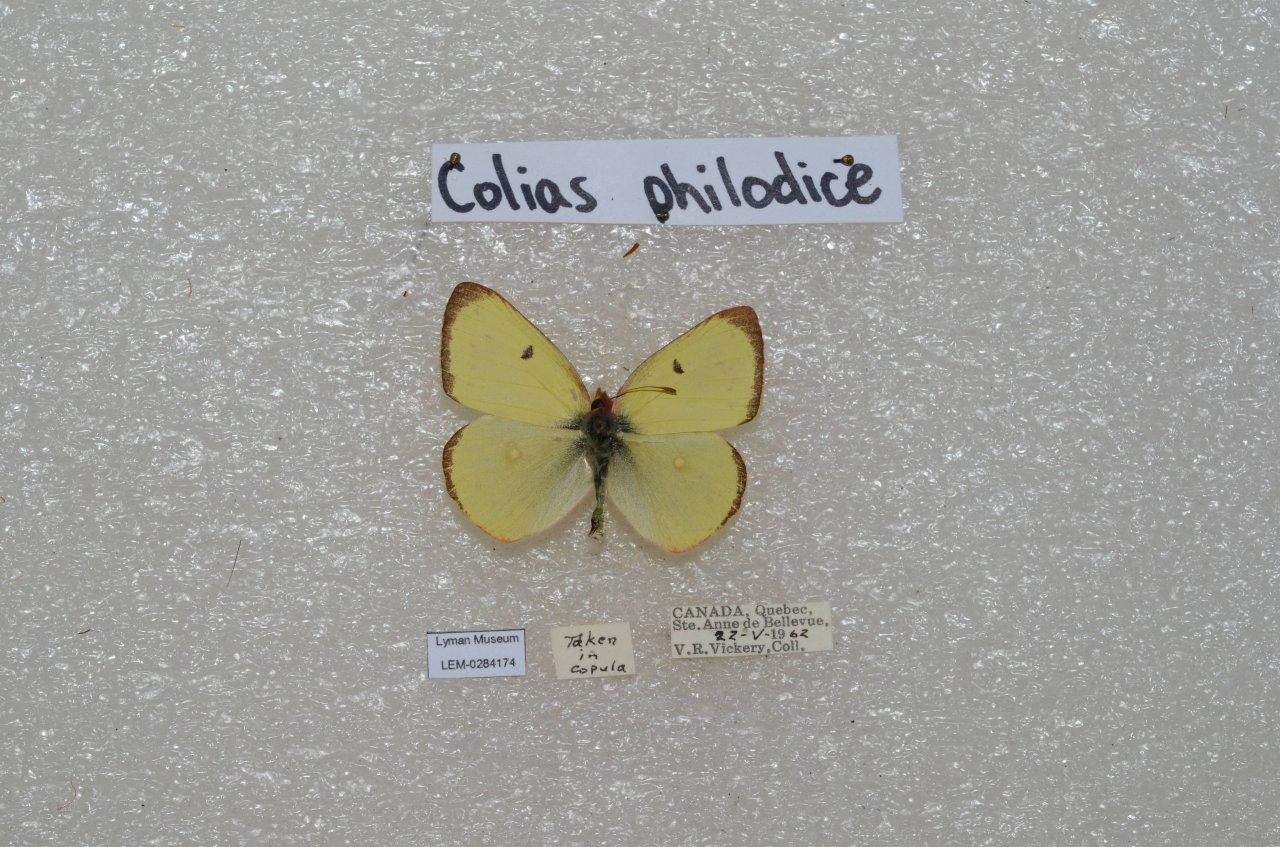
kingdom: Animalia
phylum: Arthropoda
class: Insecta
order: Lepidoptera
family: Pieridae
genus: Colias
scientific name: Colias philodice
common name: Clouded Sulphur
